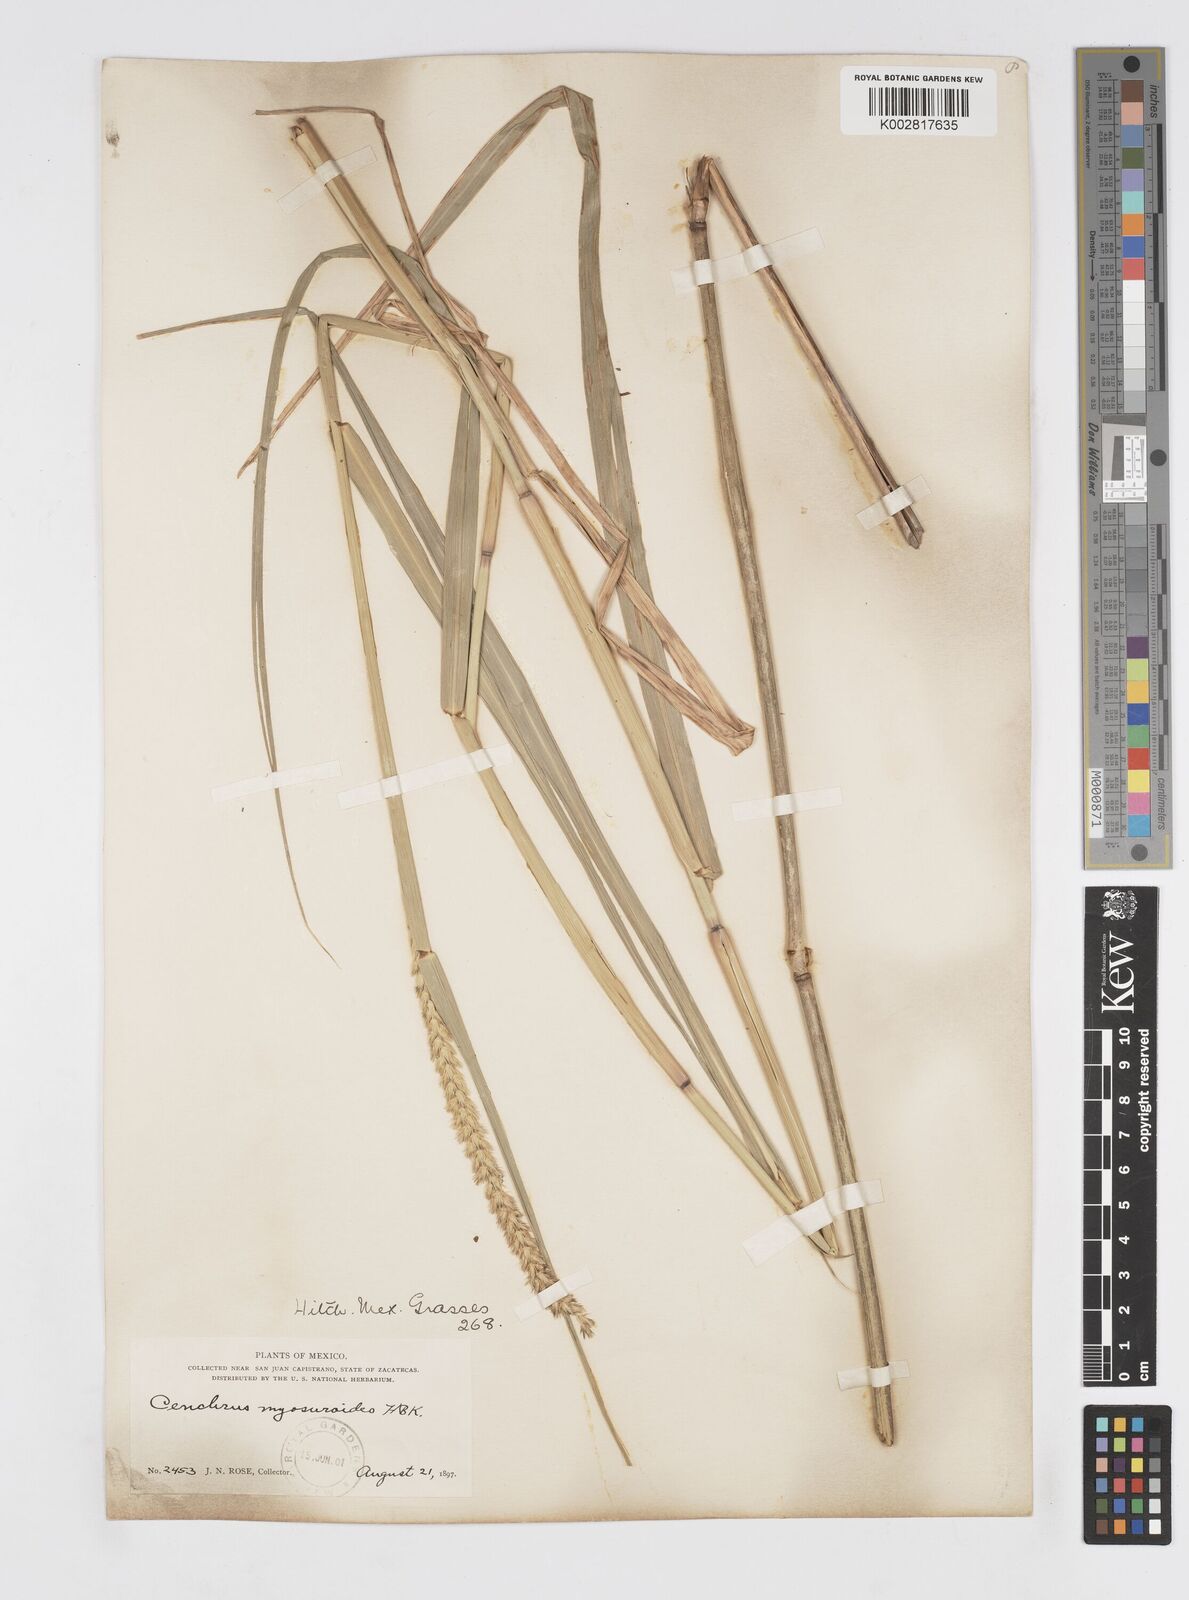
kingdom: Plantae
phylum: Tracheophyta
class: Liliopsida
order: Poales
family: Poaceae
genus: Cenchrus
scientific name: Cenchrus myosuroides
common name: Big sandbur
